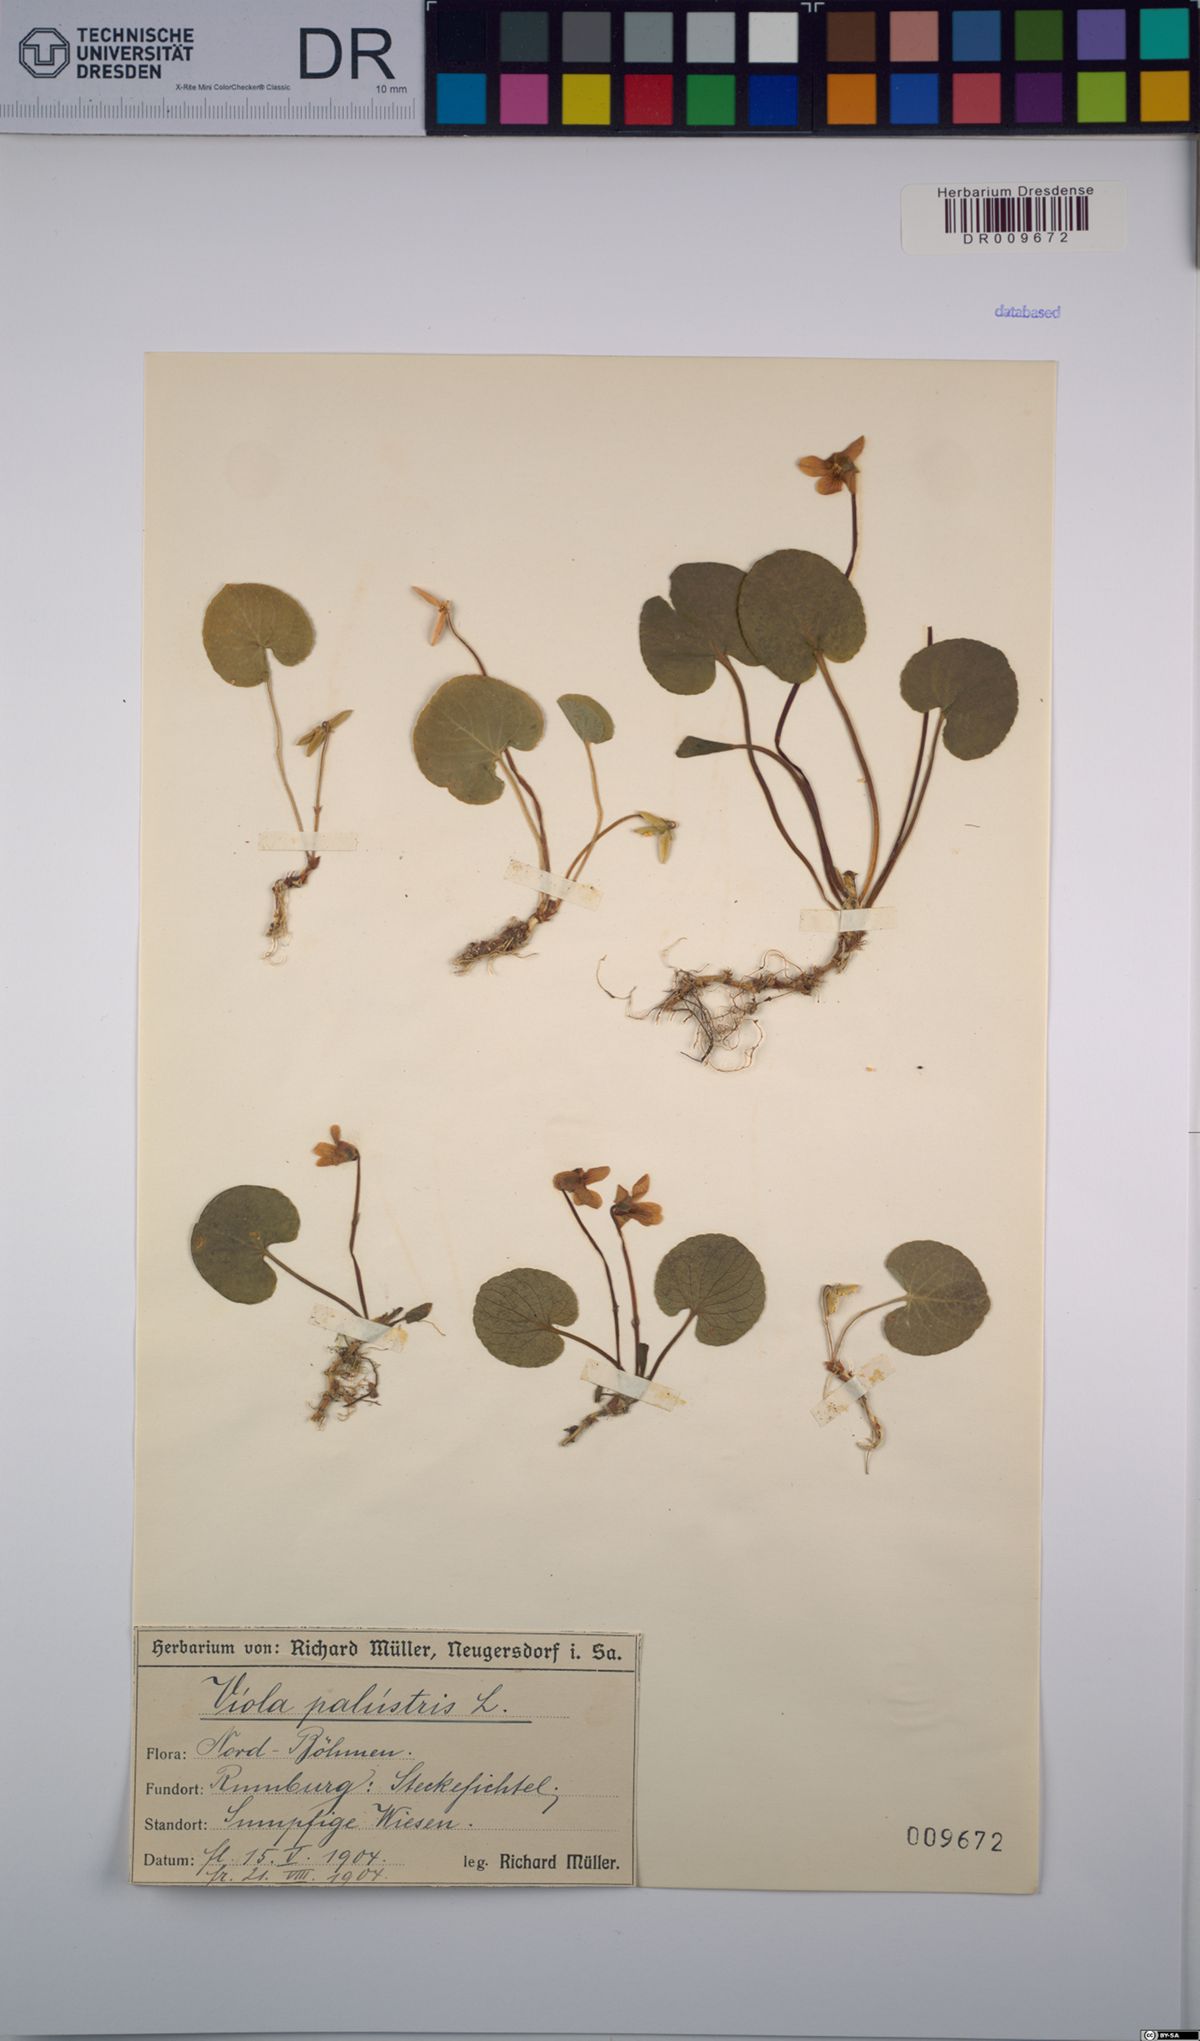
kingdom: Plantae
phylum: Tracheophyta
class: Magnoliopsida
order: Malpighiales
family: Violaceae
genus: Viola
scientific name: Viola palustris
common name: Marsh violet
